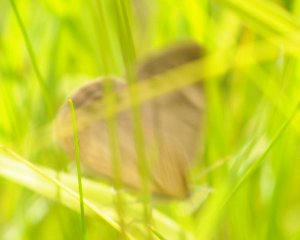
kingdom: Animalia
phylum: Arthropoda
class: Insecta
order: Lepidoptera
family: Nymphalidae
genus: Lethe
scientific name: Lethe eurydice
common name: Eyed Brown
